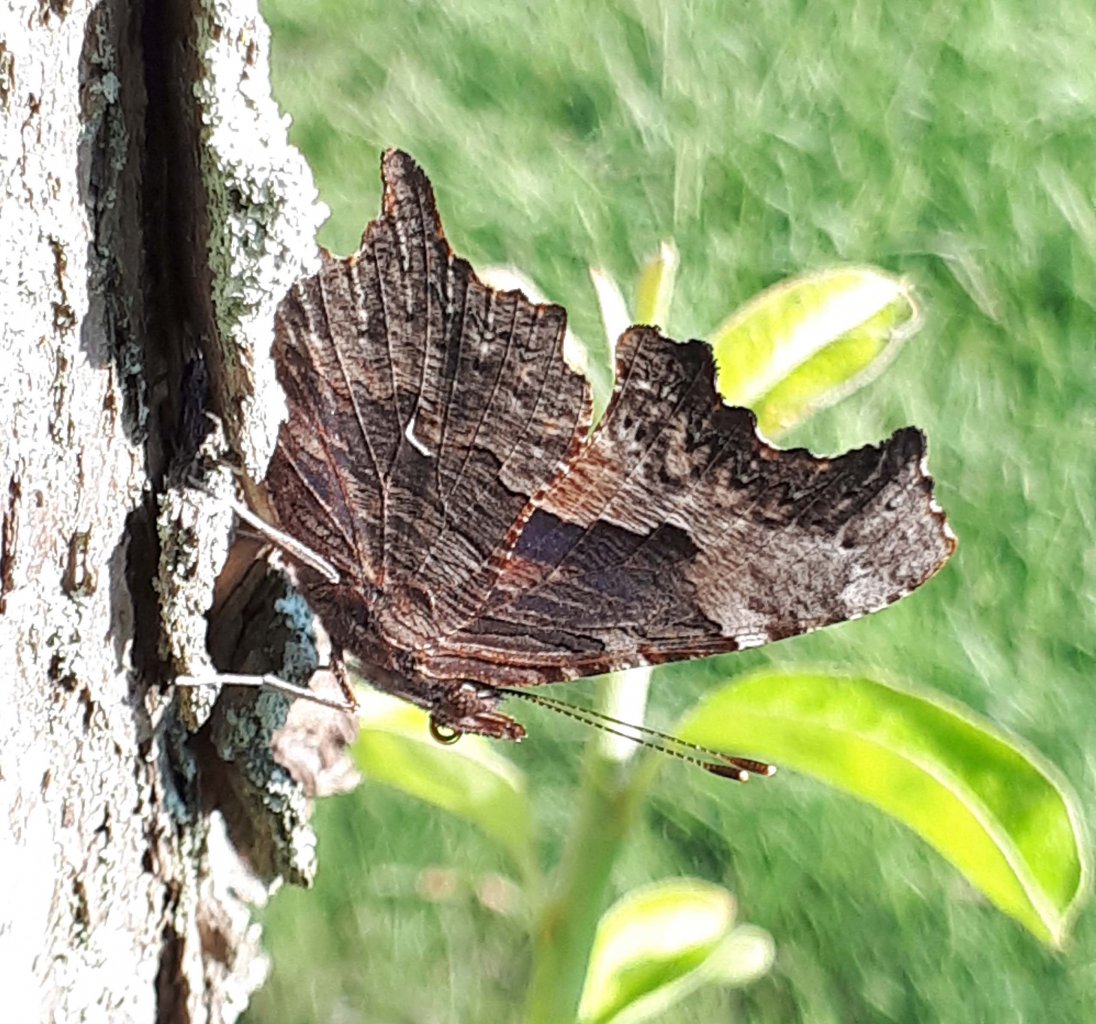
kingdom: Animalia
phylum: Arthropoda
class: Insecta
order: Lepidoptera
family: Nymphalidae
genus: Polygonia
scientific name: Polygonia progne
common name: Gray Comma
